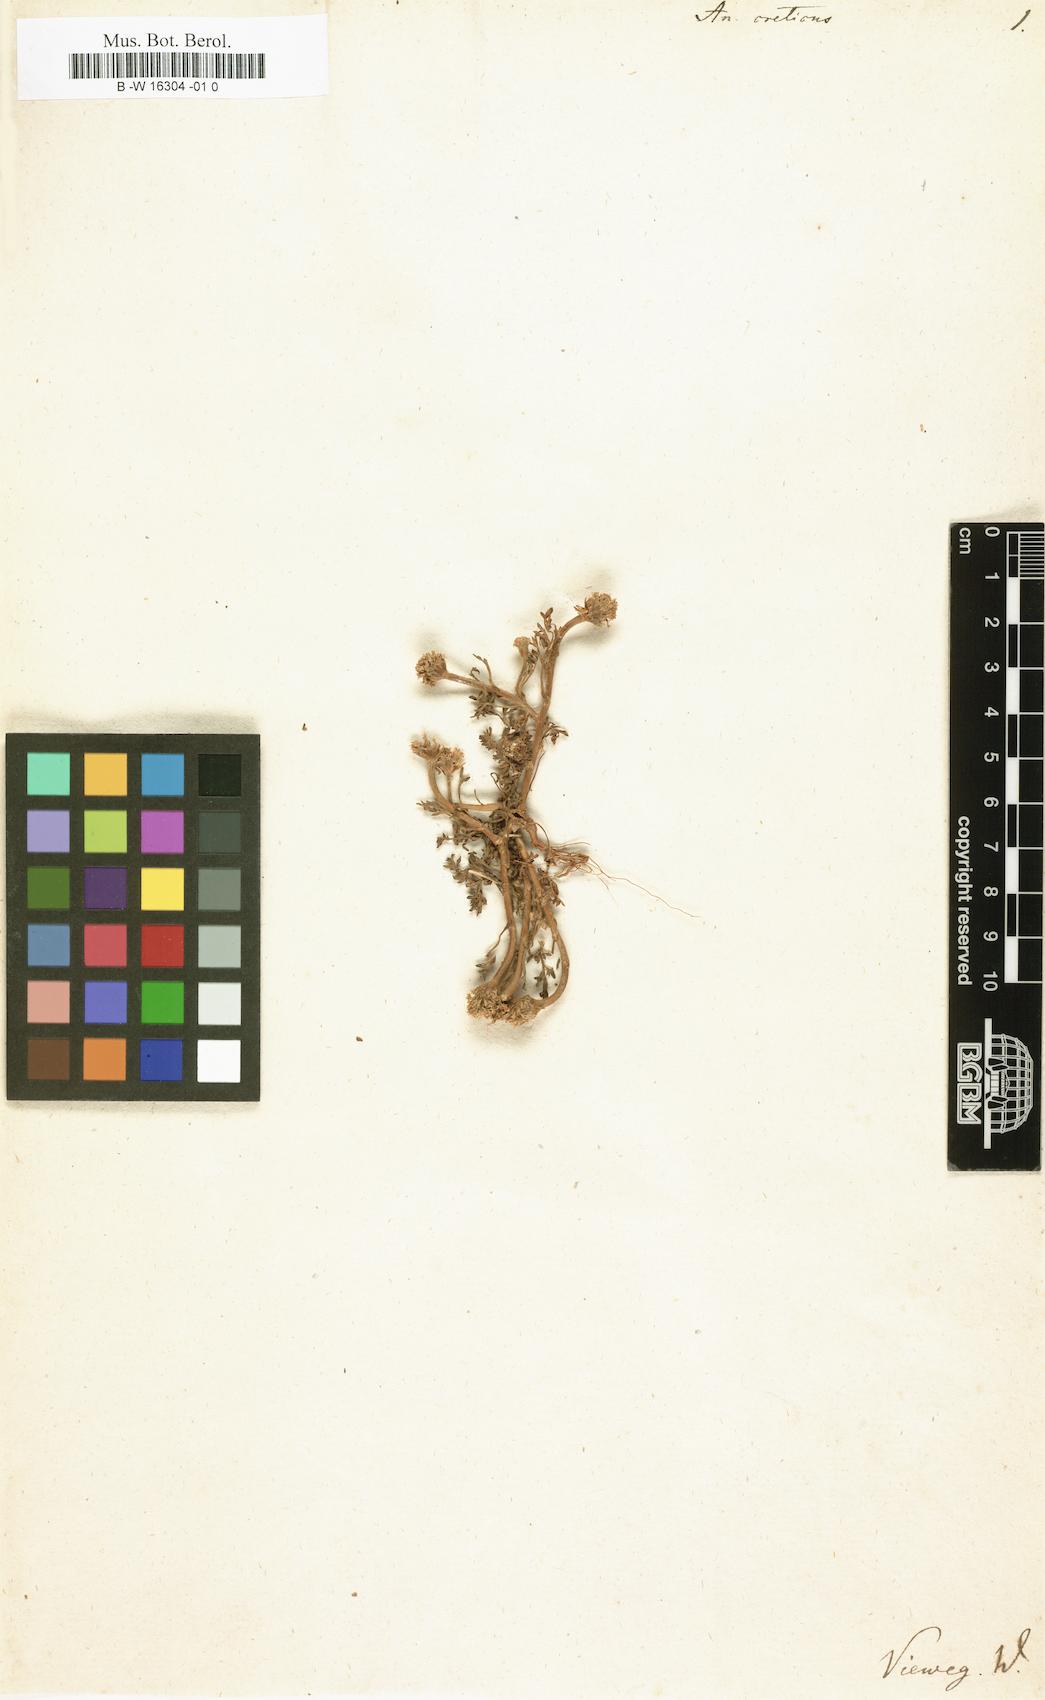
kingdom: Plantae
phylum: Tracheophyta
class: Magnoliopsida
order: Asterales
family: Asteraceae
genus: Anthemis
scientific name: Anthemis cretica
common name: Mountain dog-daisy
